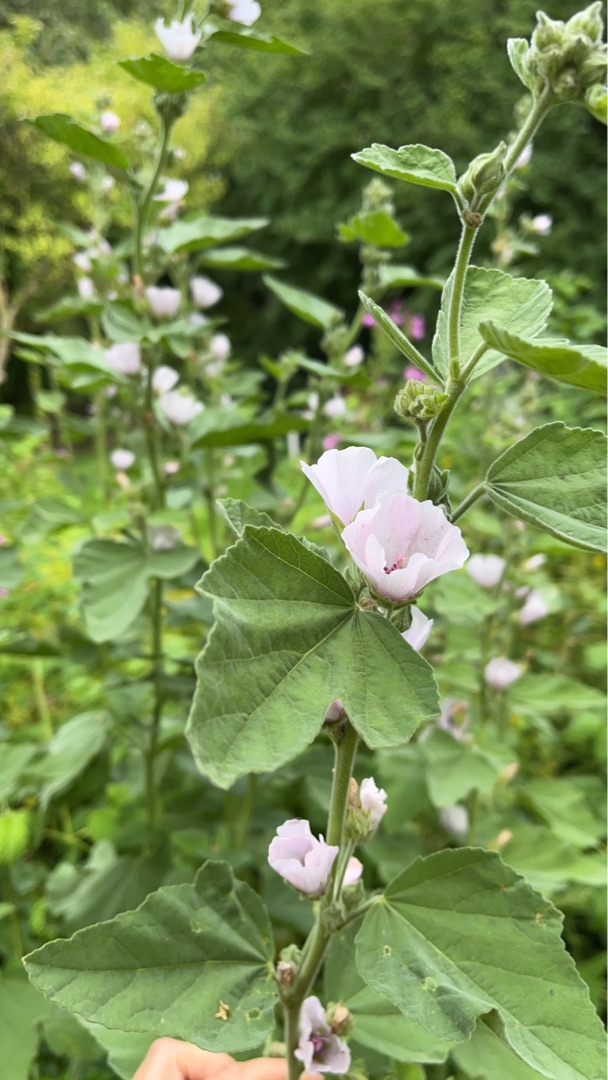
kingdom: Plantae
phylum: Tracheophyta
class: Magnoliopsida
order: Malvales
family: Malvaceae
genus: Althaea
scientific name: Althaea officinalis
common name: Lægestokrose
